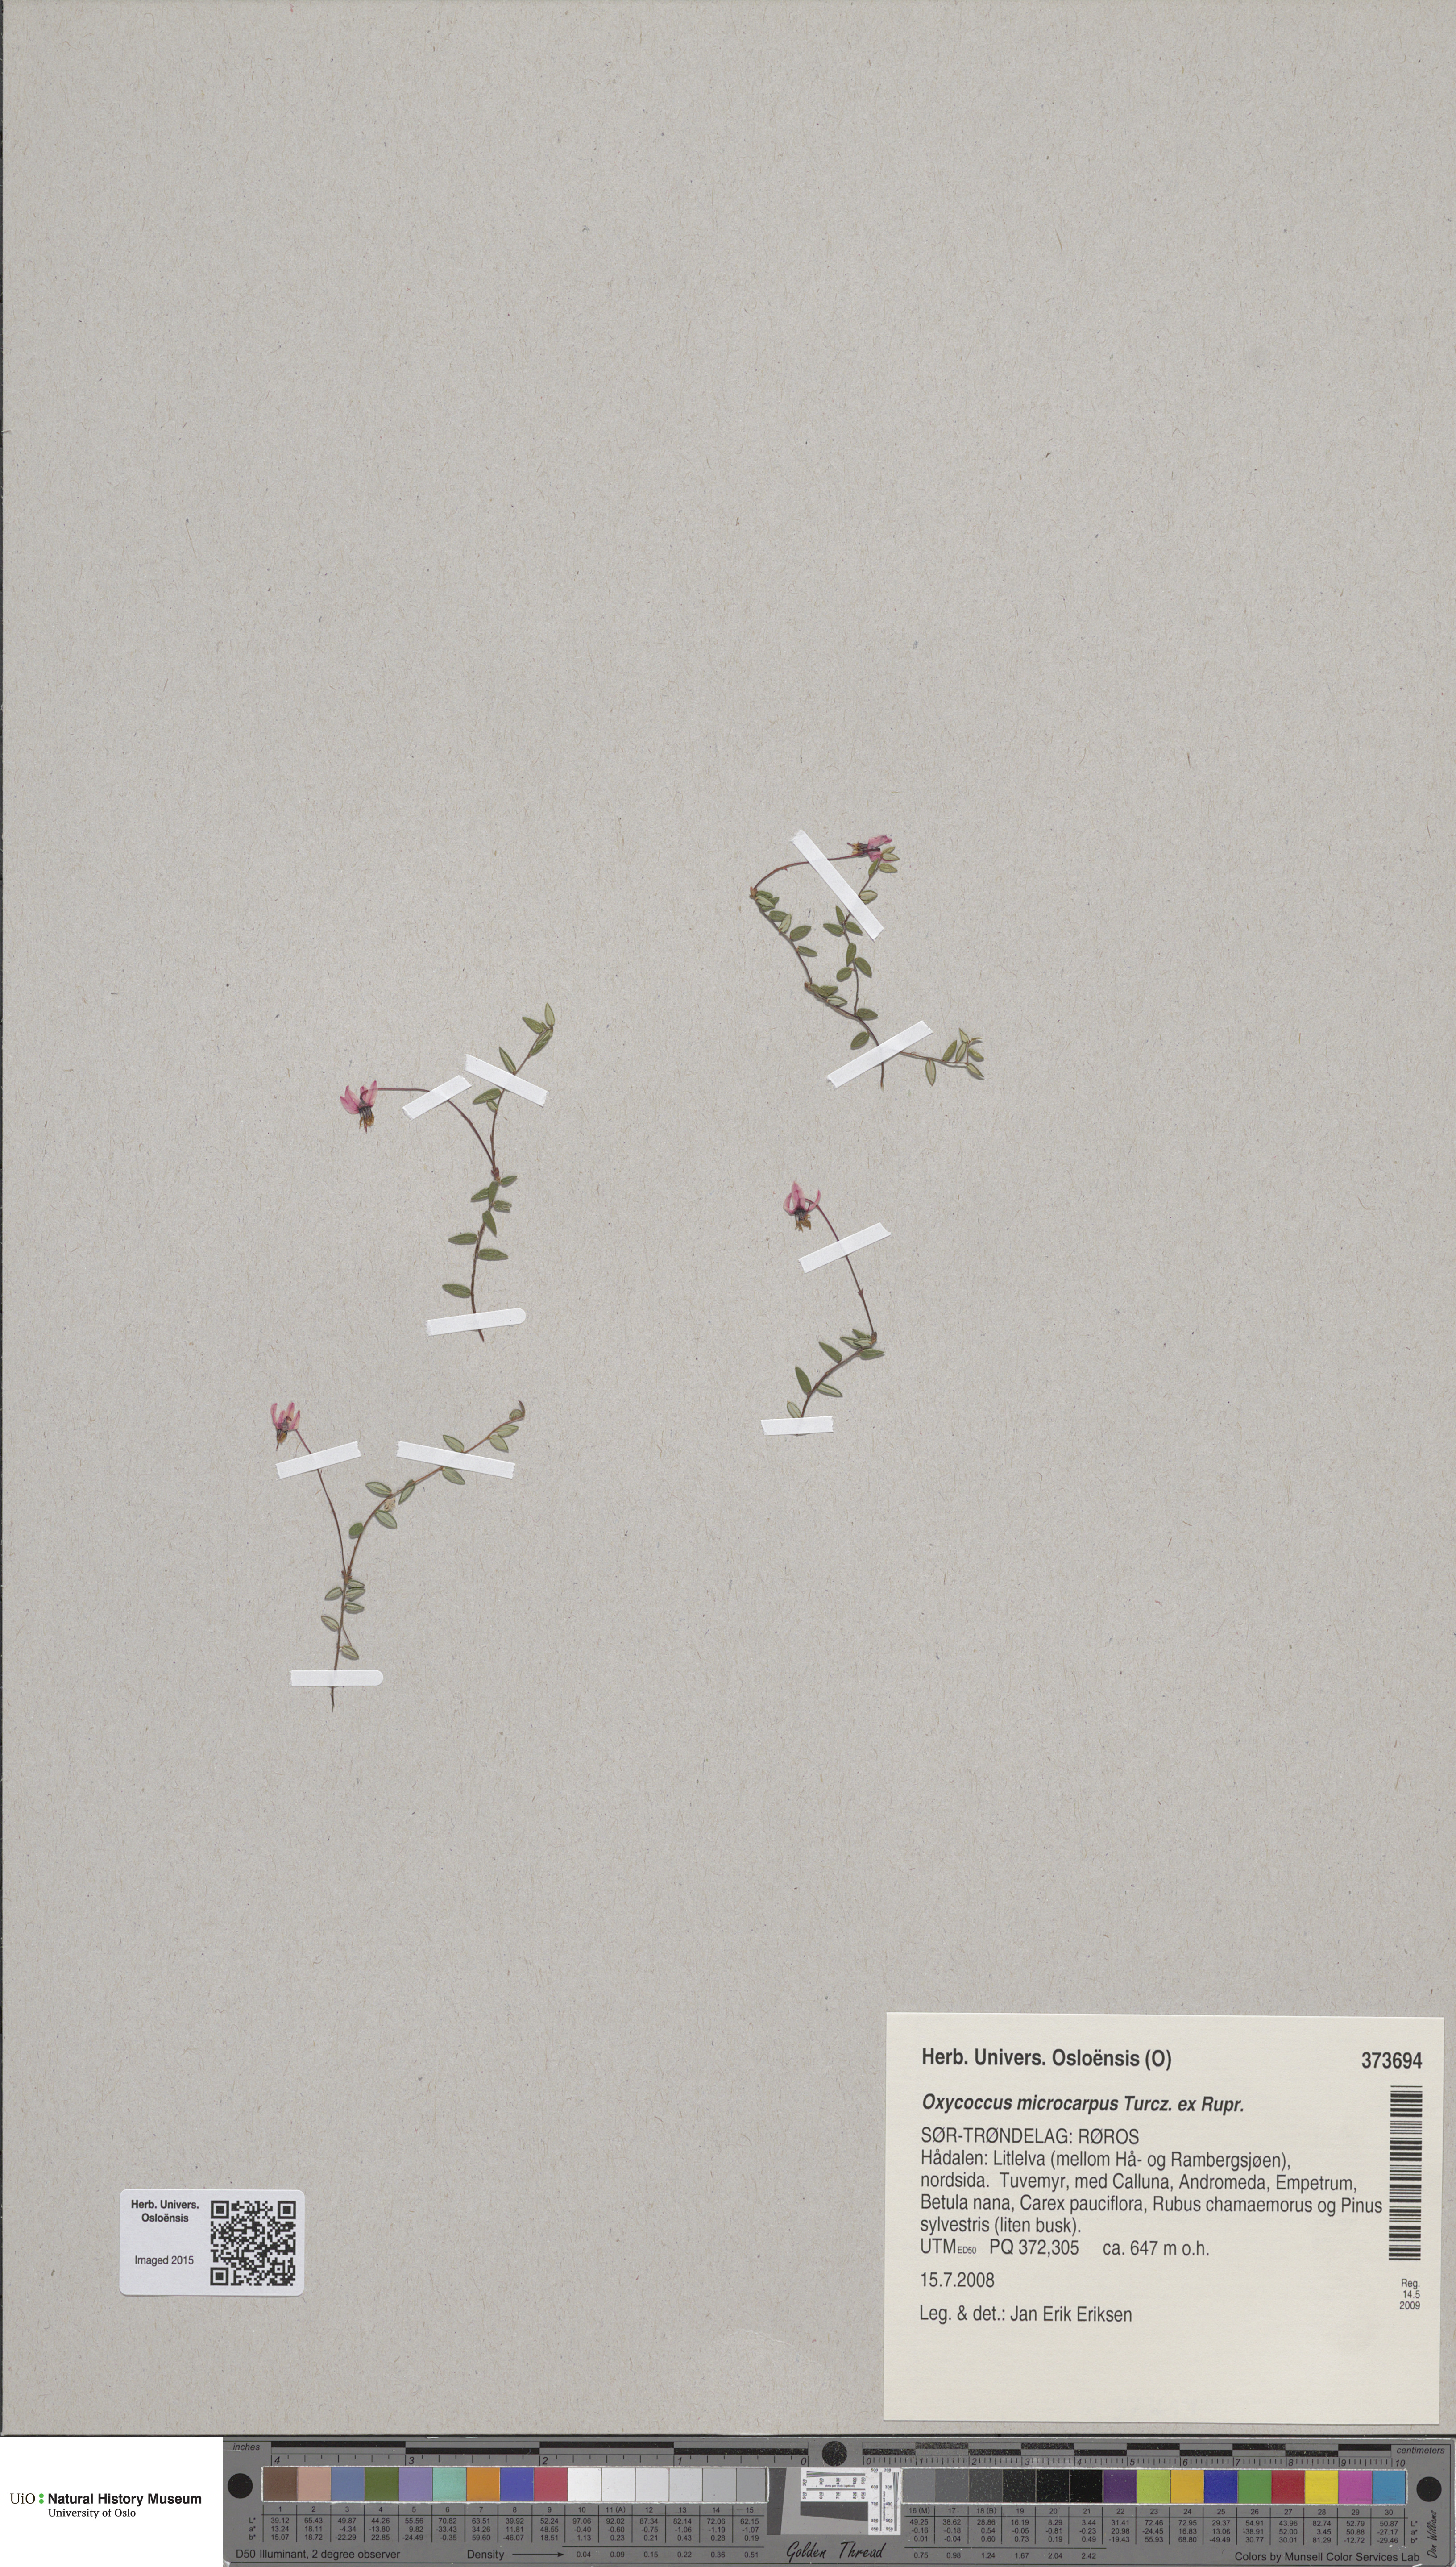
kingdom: Plantae
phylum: Tracheophyta
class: Magnoliopsida
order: Ericales
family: Ericaceae
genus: Vaccinium
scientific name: Vaccinium microcarpum
